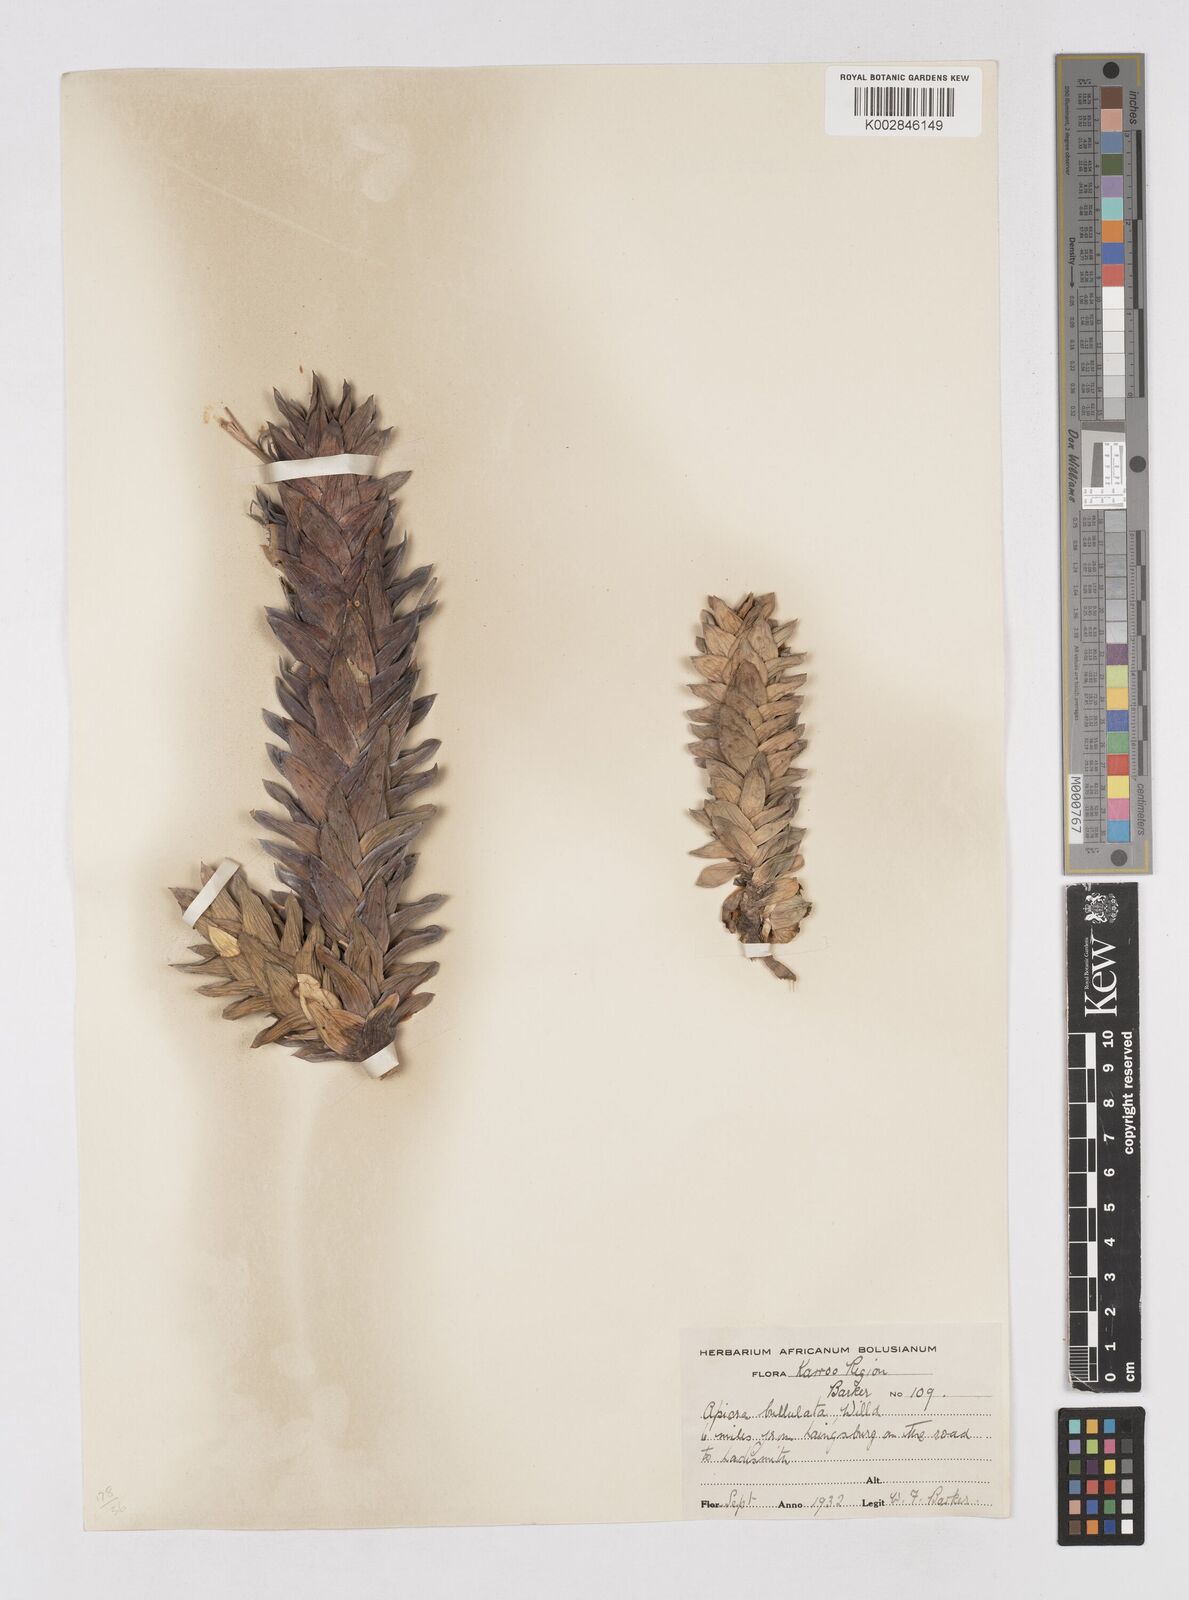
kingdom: Plantae
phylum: Tracheophyta
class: Liliopsida
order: Asparagales
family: Asphodelaceae
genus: Astroloba
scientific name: Astroloba bullulata
